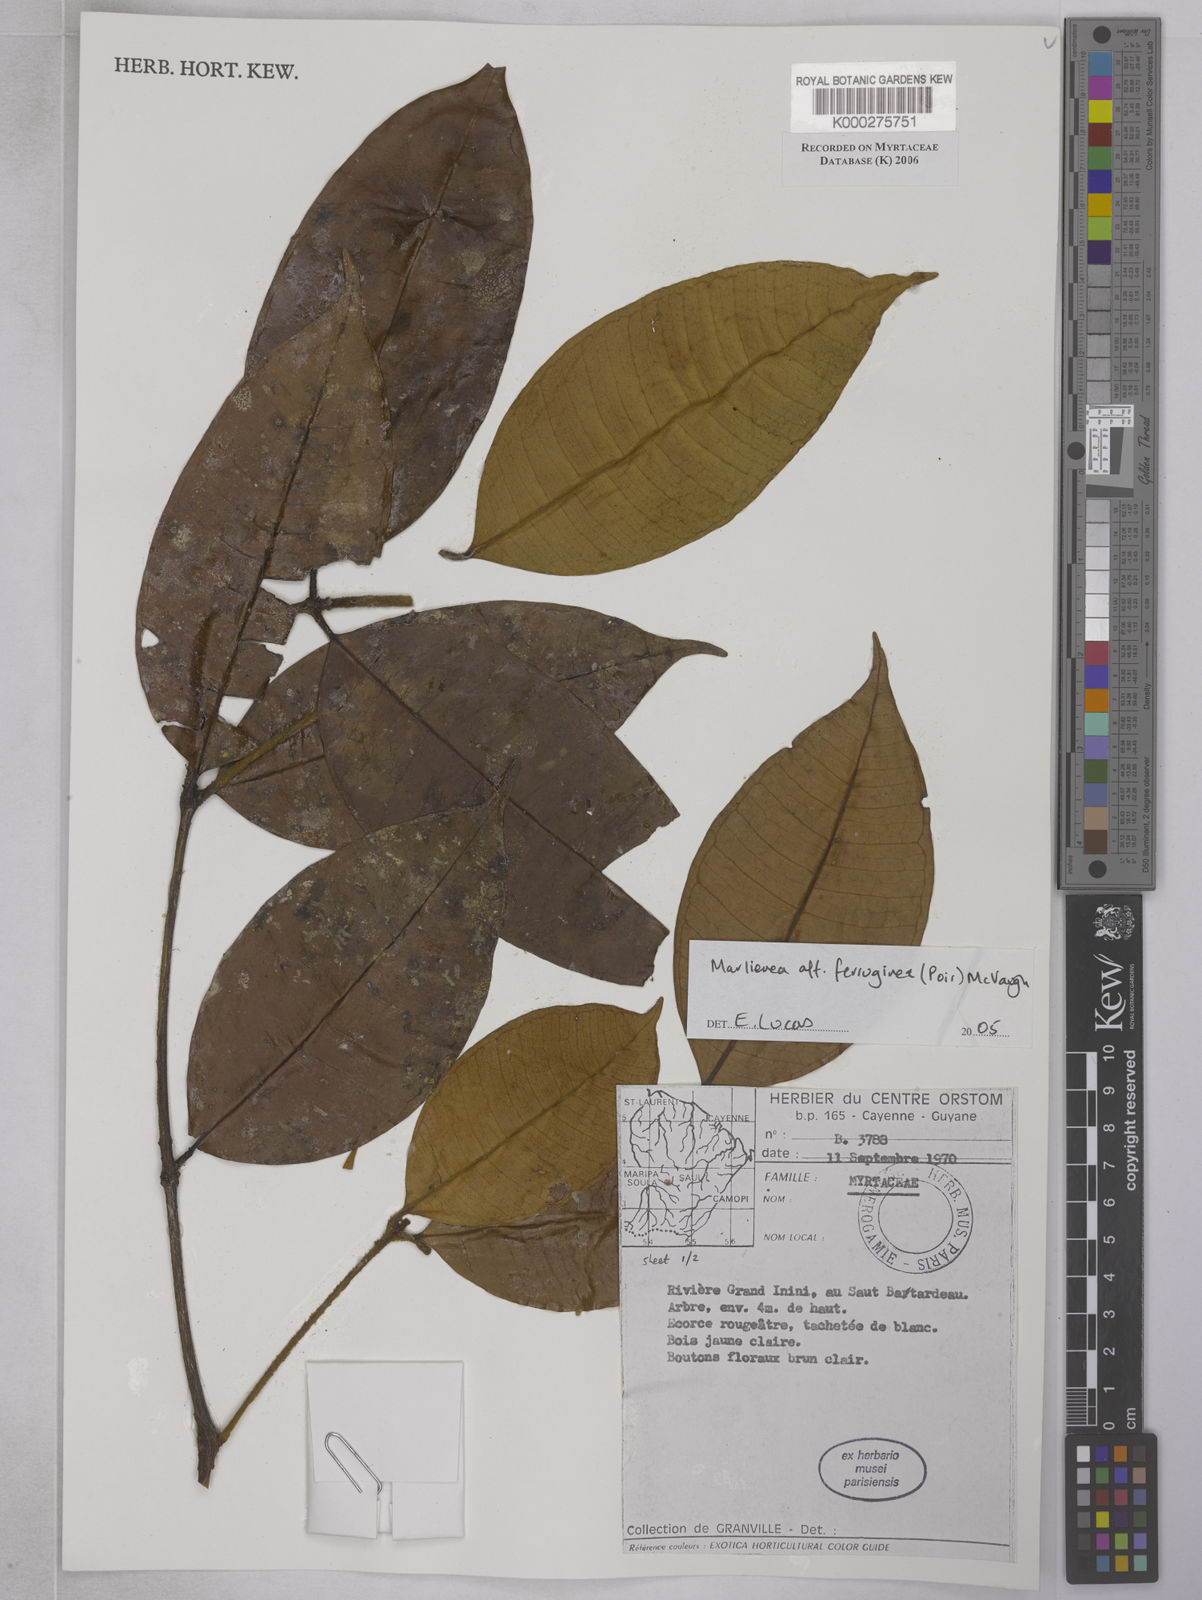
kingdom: Plantae
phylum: Tracheophyta
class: Magnoliopsida
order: Myrtales
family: Myrtaceae
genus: Myrcia
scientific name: Myrcia ferruginea
